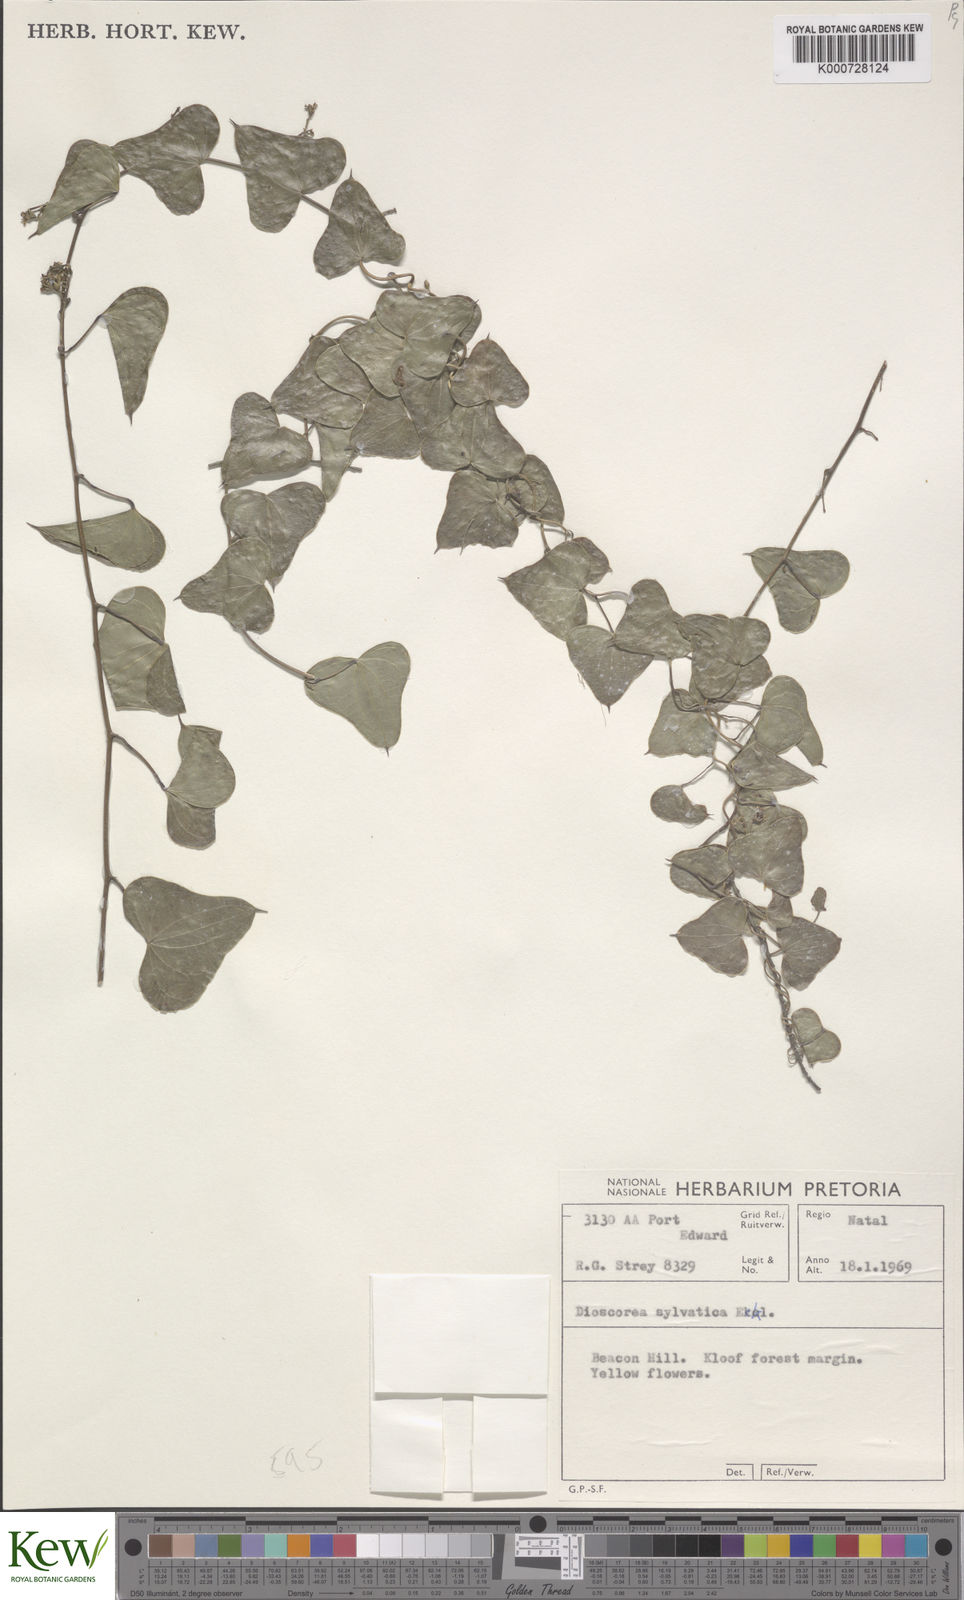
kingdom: Plantae
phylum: Tracheophyta
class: Liliopsida
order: Dioscoreales
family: Dioscoreaceae
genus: Dioscorea
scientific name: Dioscorea sylvatica
